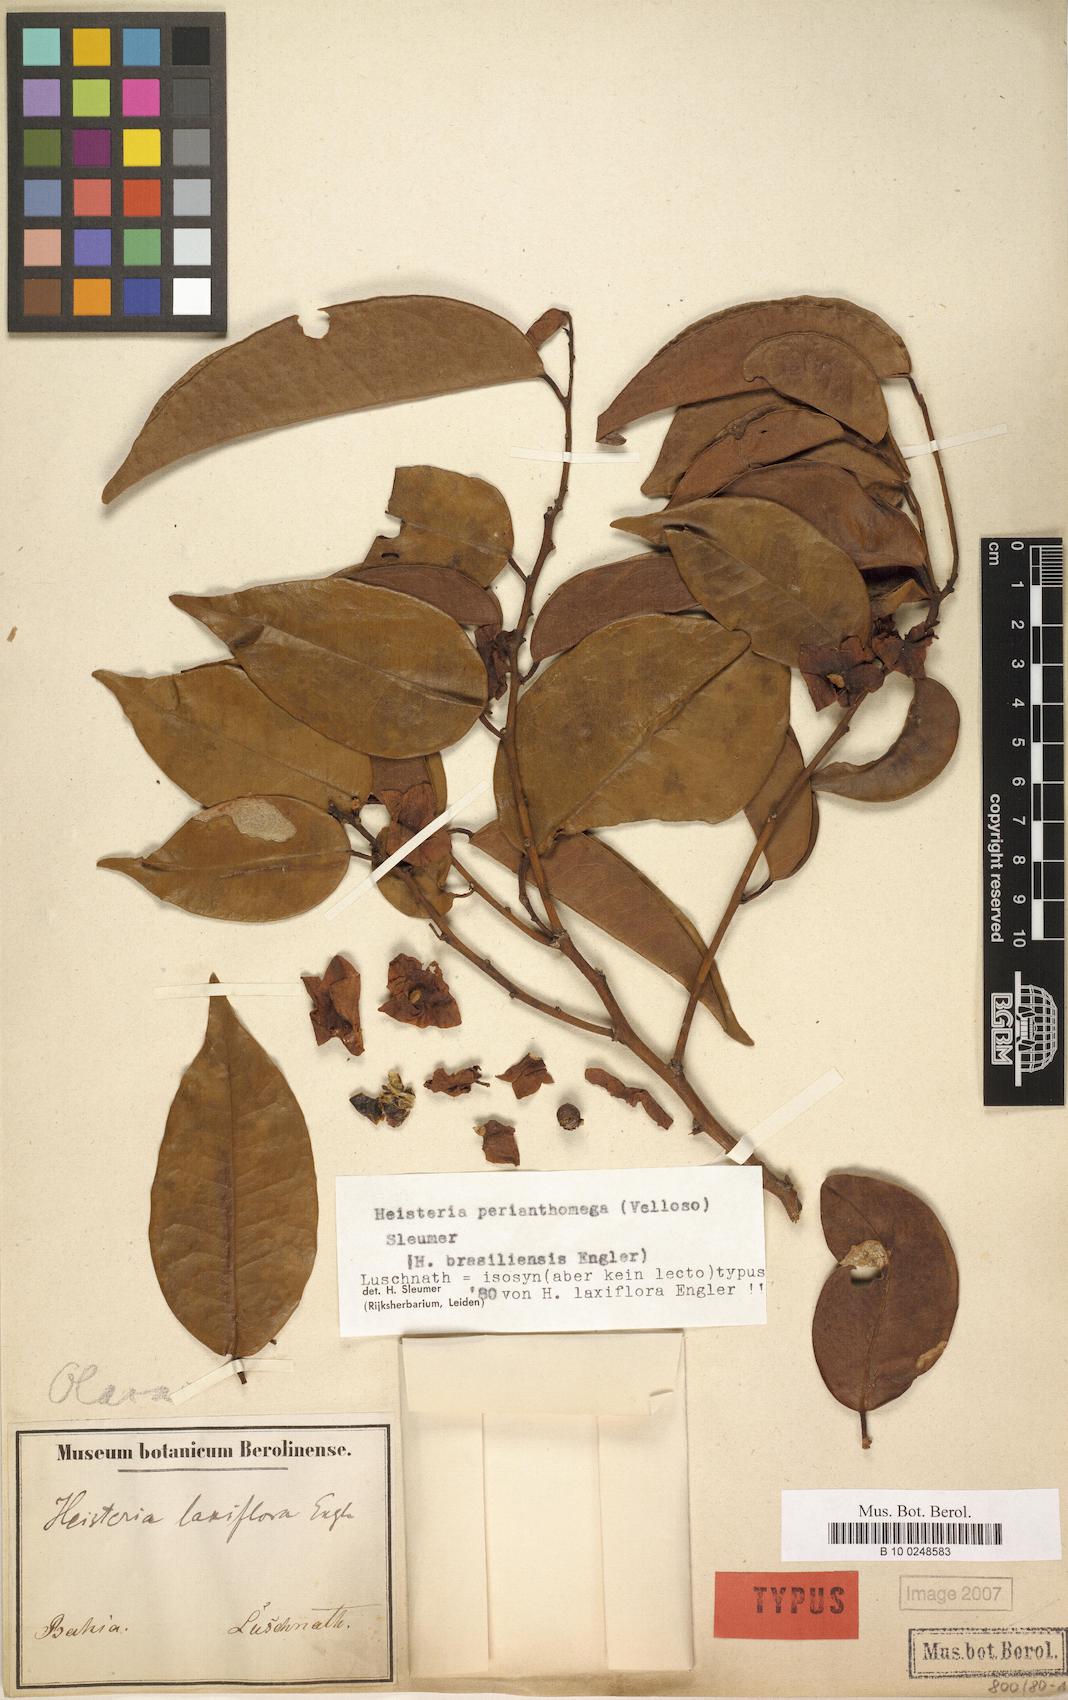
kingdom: Plantae
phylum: Tracheophyta
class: Magnoliopsida
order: Santalales
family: Erythropalaceae
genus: Heisteria
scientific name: Heisteria perianthomega
